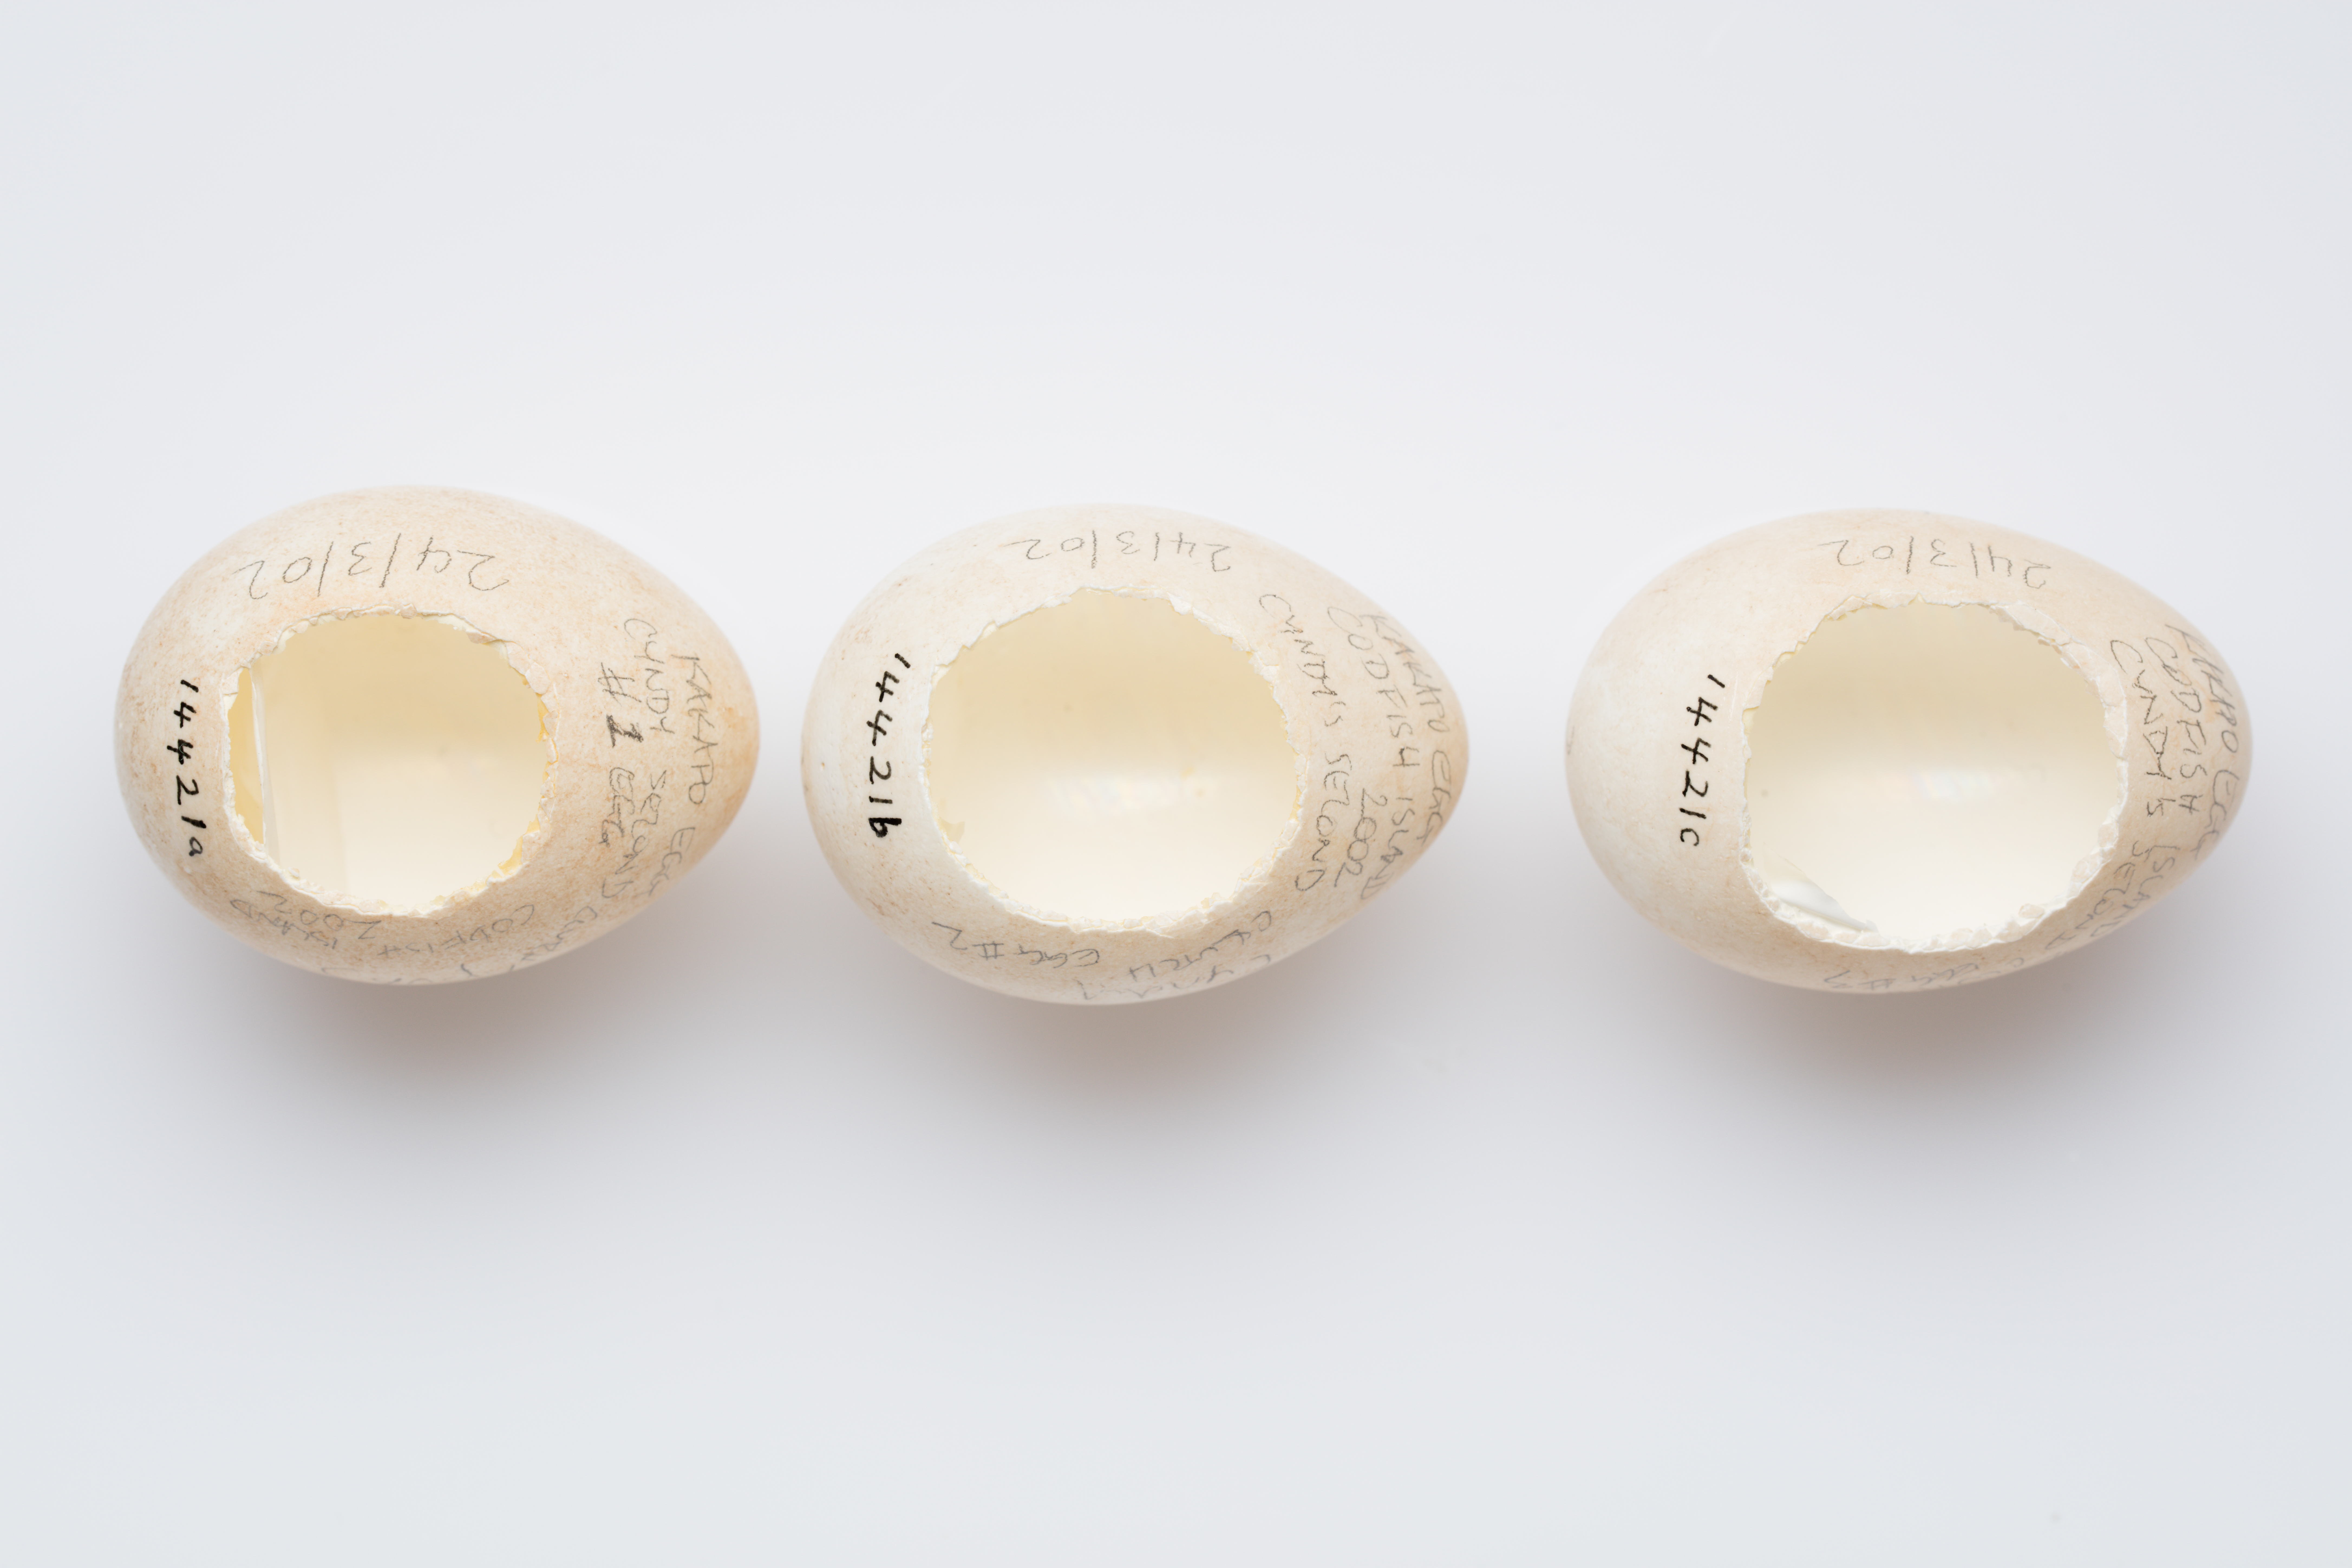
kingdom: Animalia
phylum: Chordata
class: Aves
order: Psittaciformes
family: Psittacidae
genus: Strigops
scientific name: Strigops habroptila
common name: Kakapo
